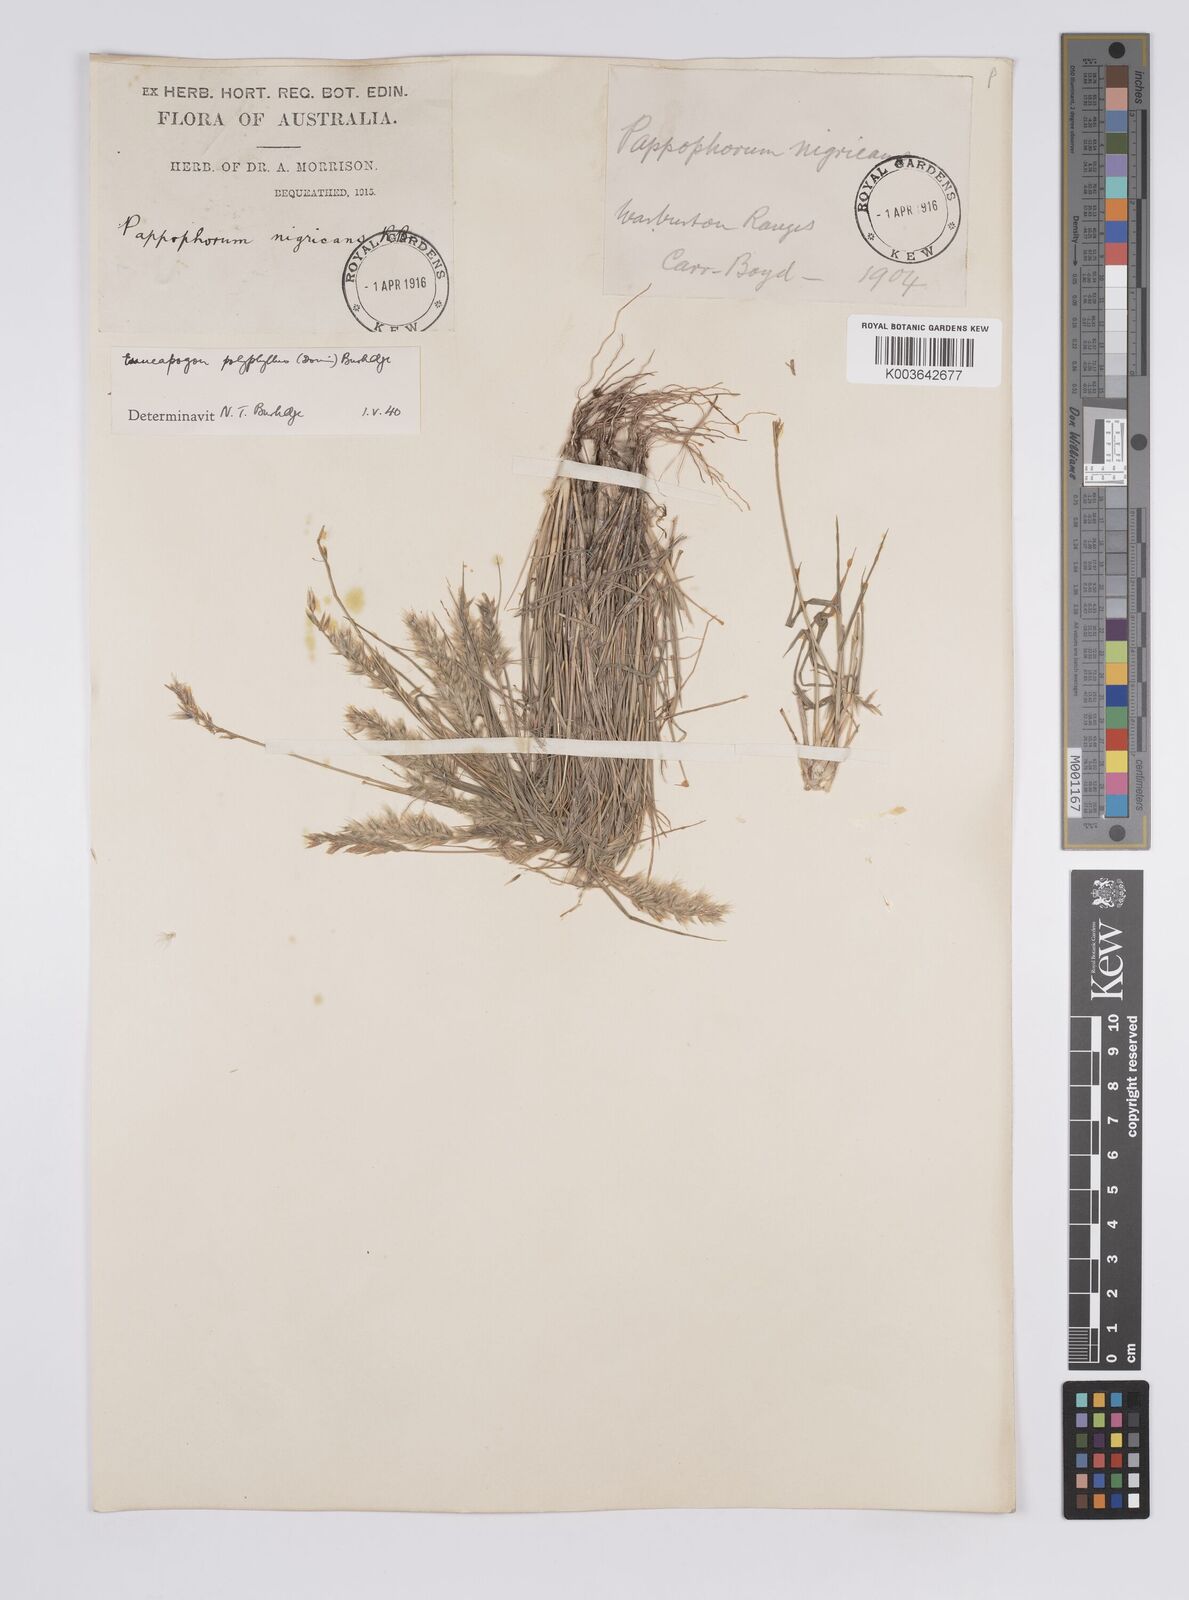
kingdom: Plantae
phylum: Tracheophyta
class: Liliopsida
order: Poales
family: Poaceae
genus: Enneapogon
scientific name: Enneapogon polyphyllus
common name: Leafy nineawn
